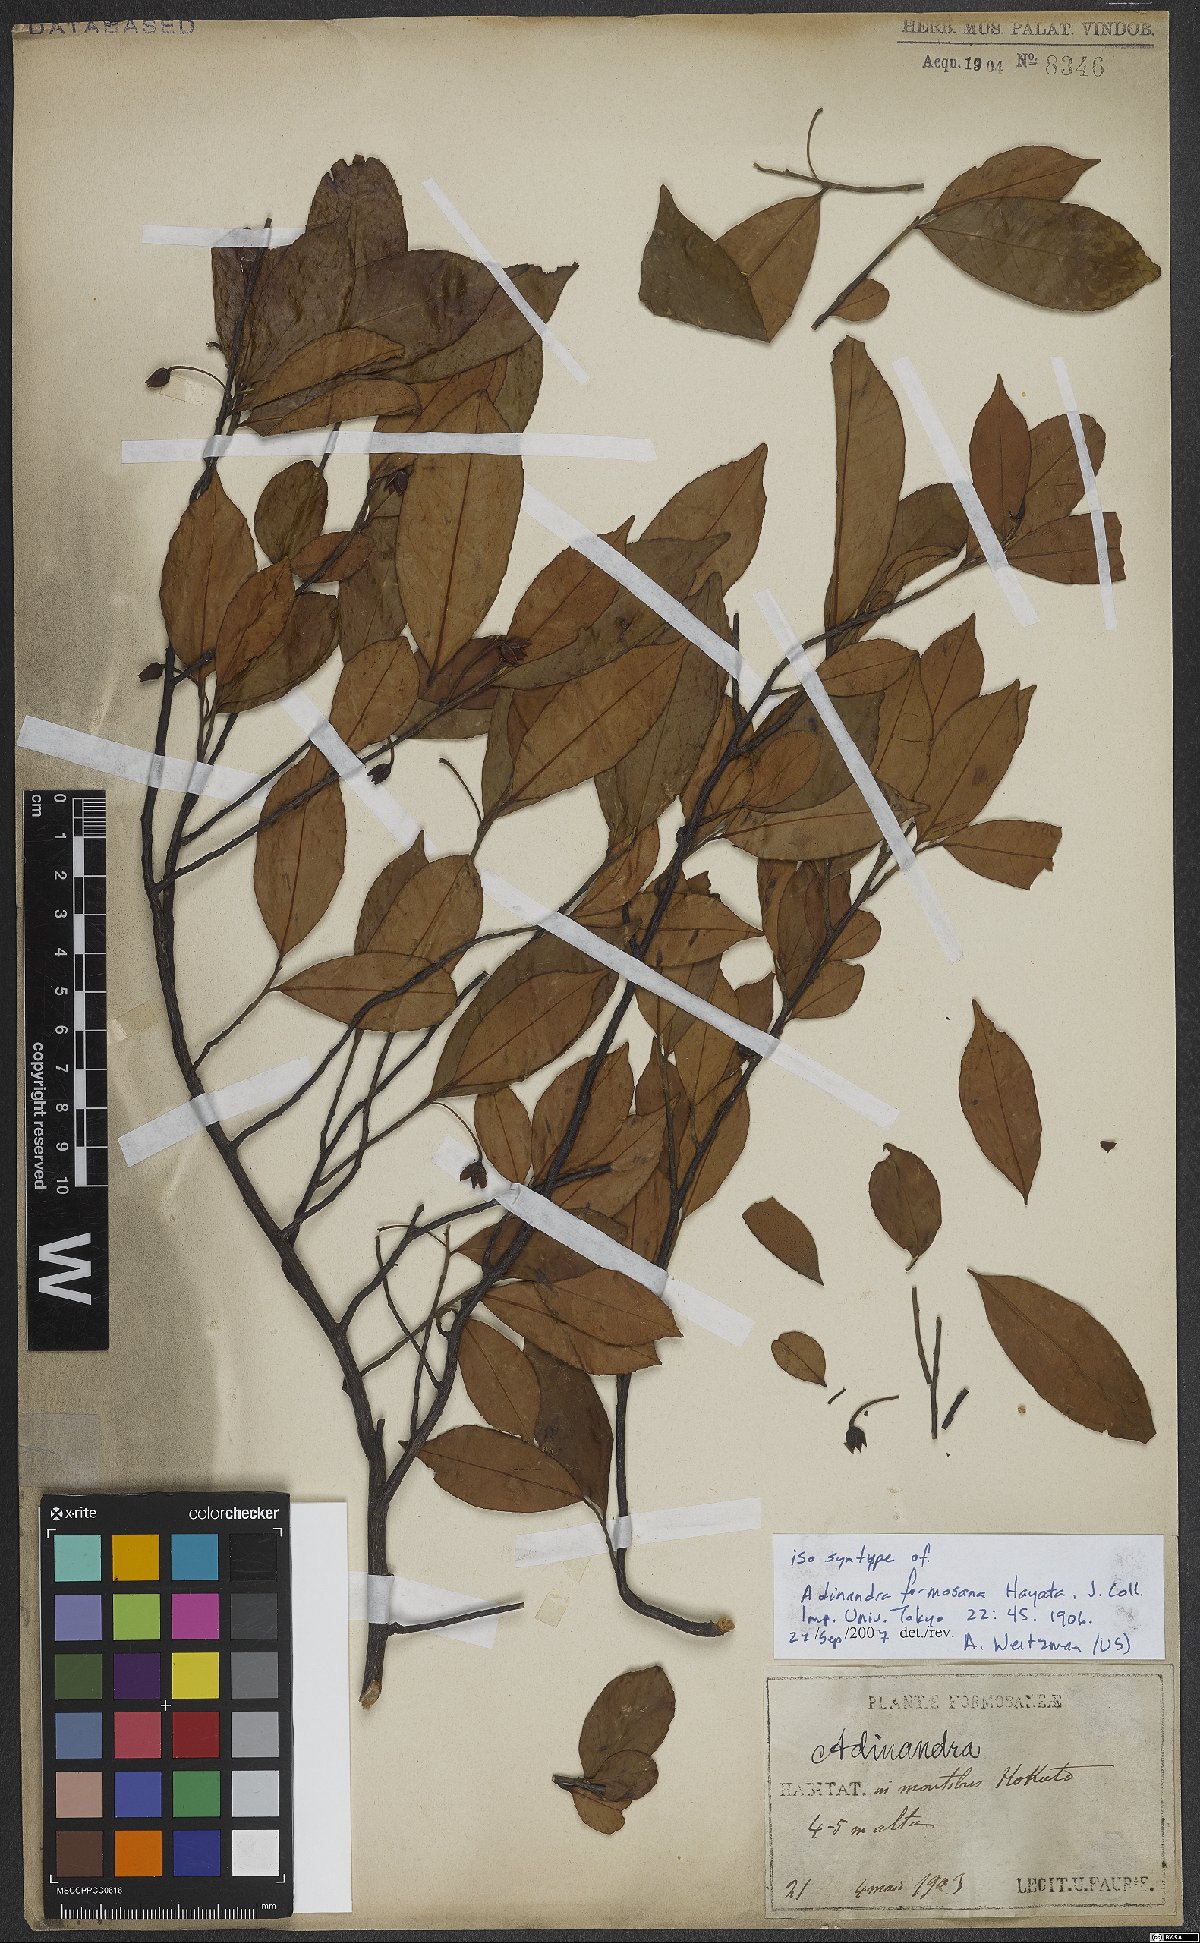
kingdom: Plantae
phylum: Tracheophyta
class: Magnoliopsida
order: Ericales
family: Pentaphylacaceae
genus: Adinandra
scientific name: Adinandra formosana
